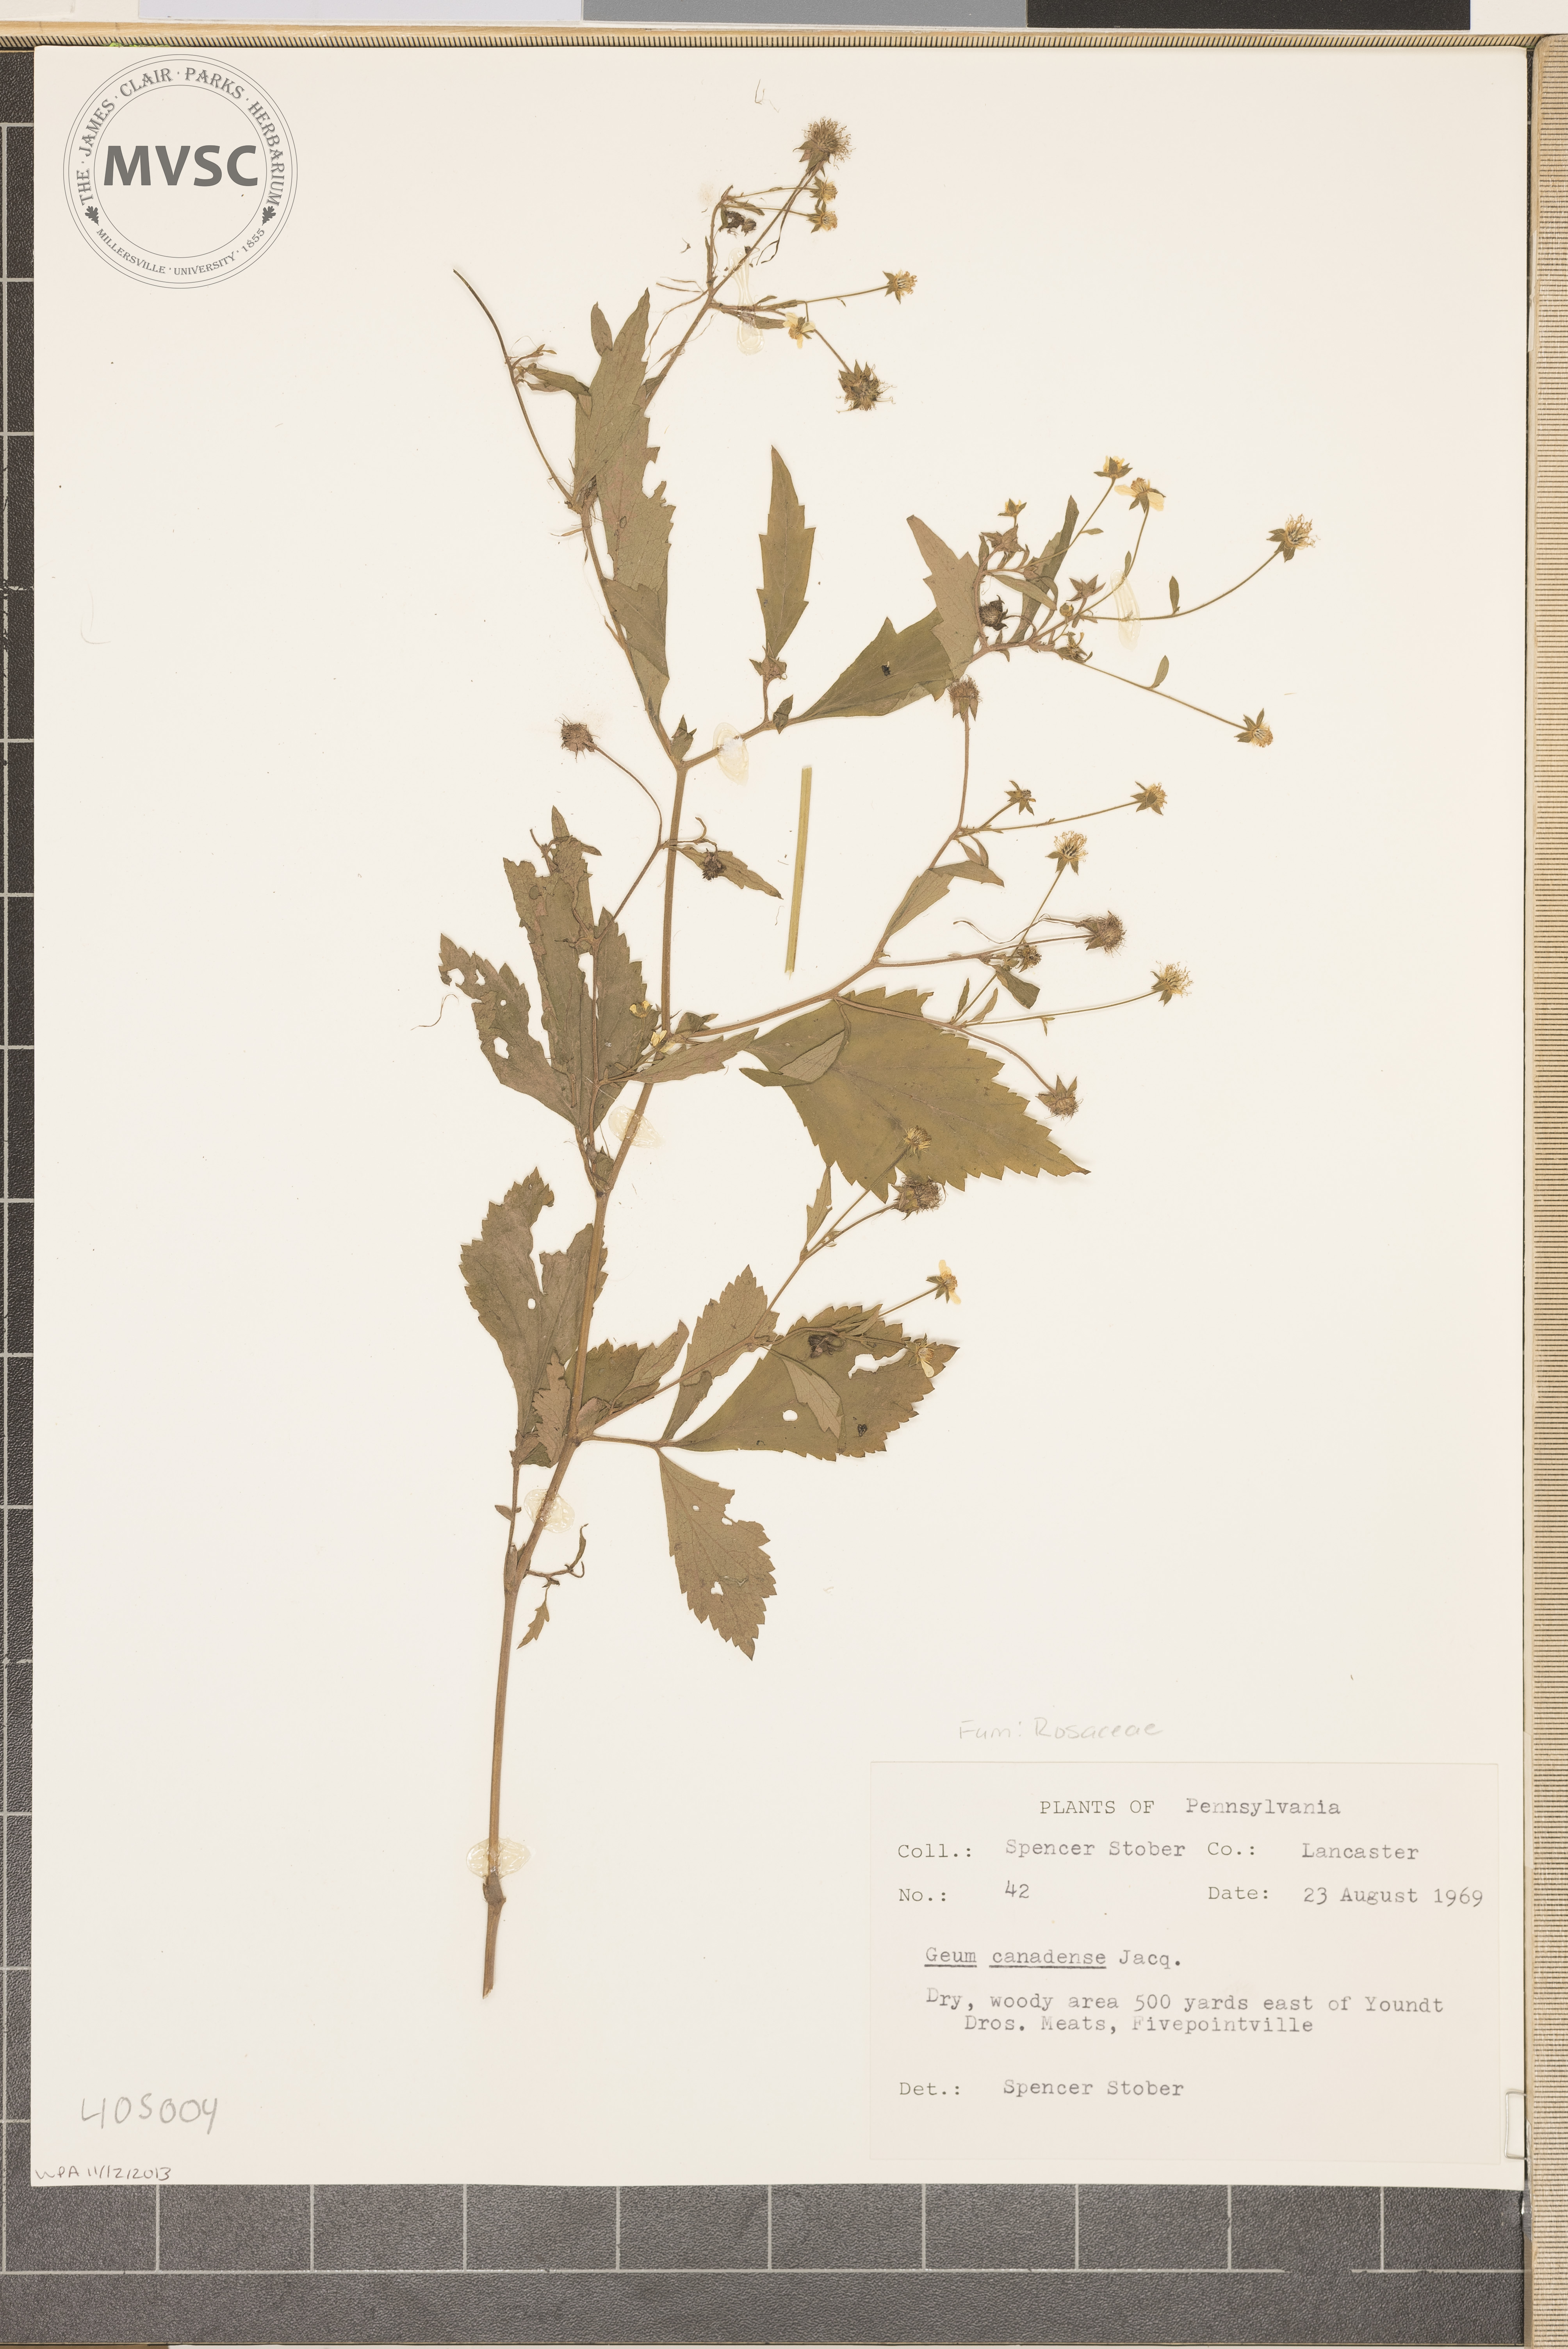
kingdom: Plantae
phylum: Tracheophyta
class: Magnoliopsida
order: Rosales
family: Rosaceae
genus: Geum
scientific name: Geum canadense
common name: White avens
